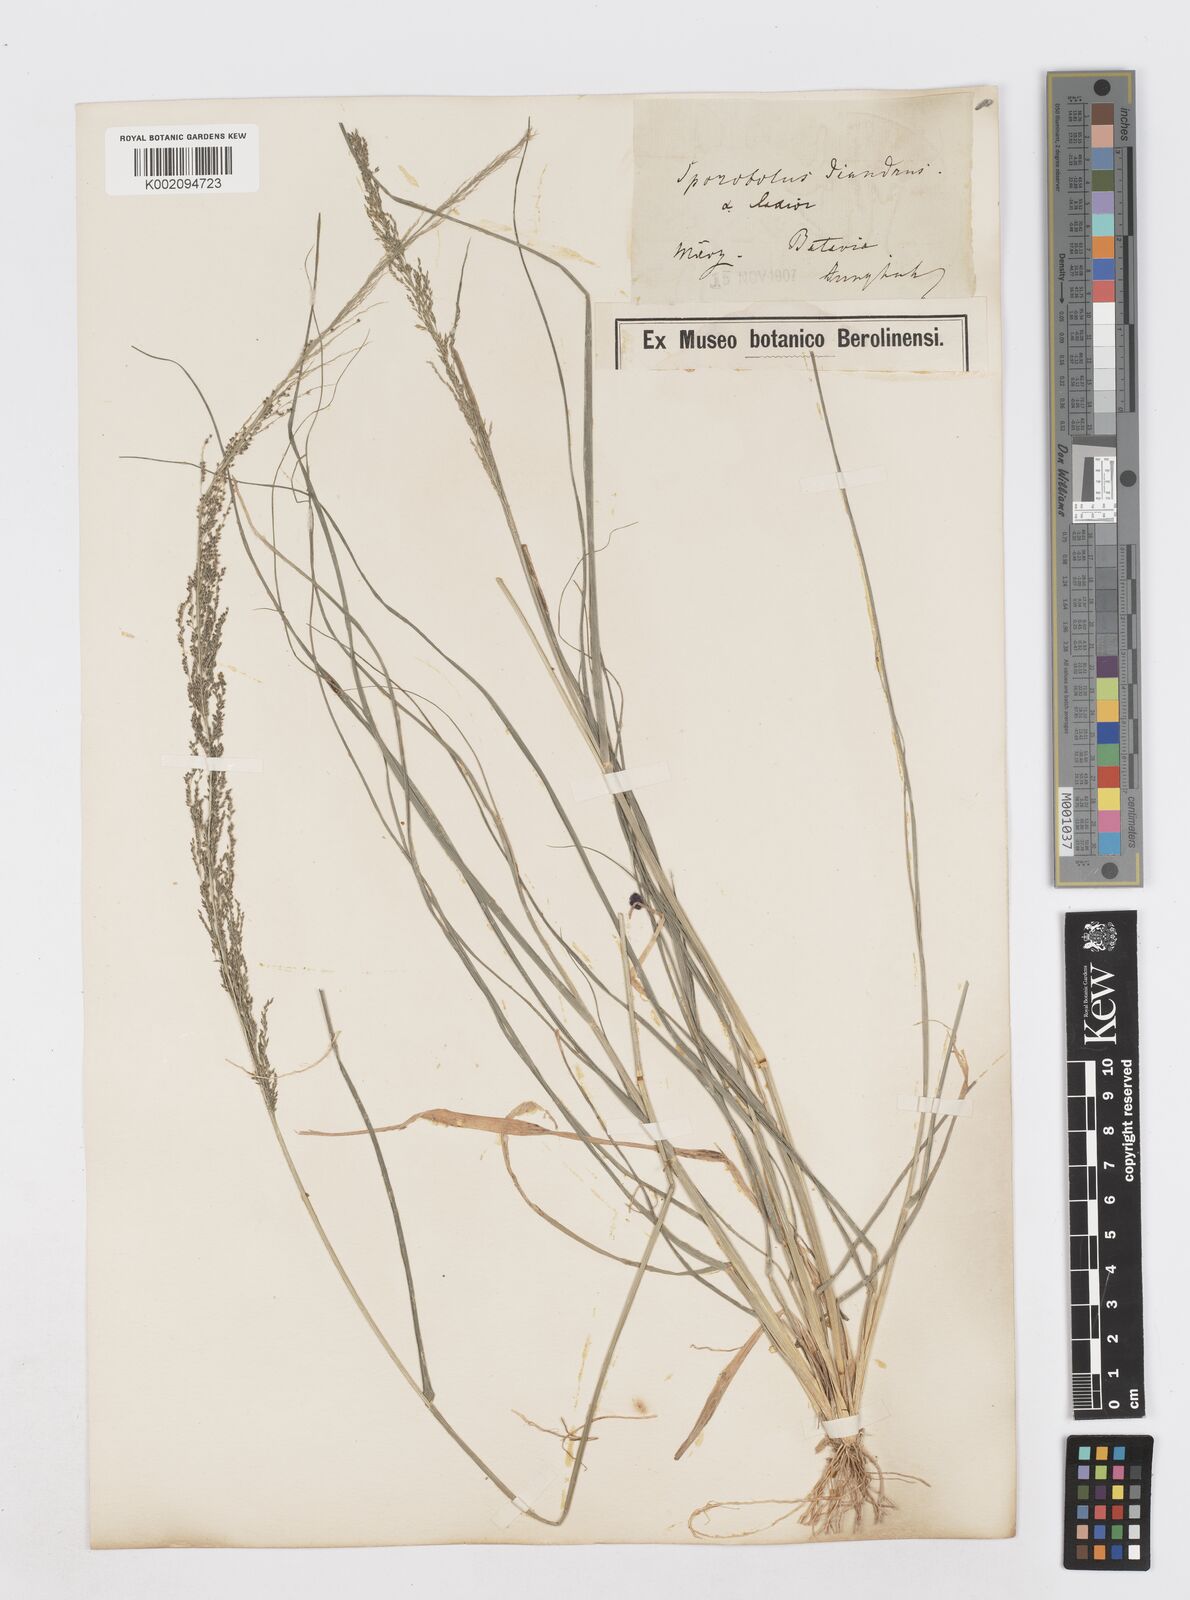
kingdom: Plantae
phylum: Tracheophyta
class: Liliopsida
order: Poales
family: Poaceae
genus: Sporobolus
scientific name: Sporobolus diandrus
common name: Tussock dropseed
